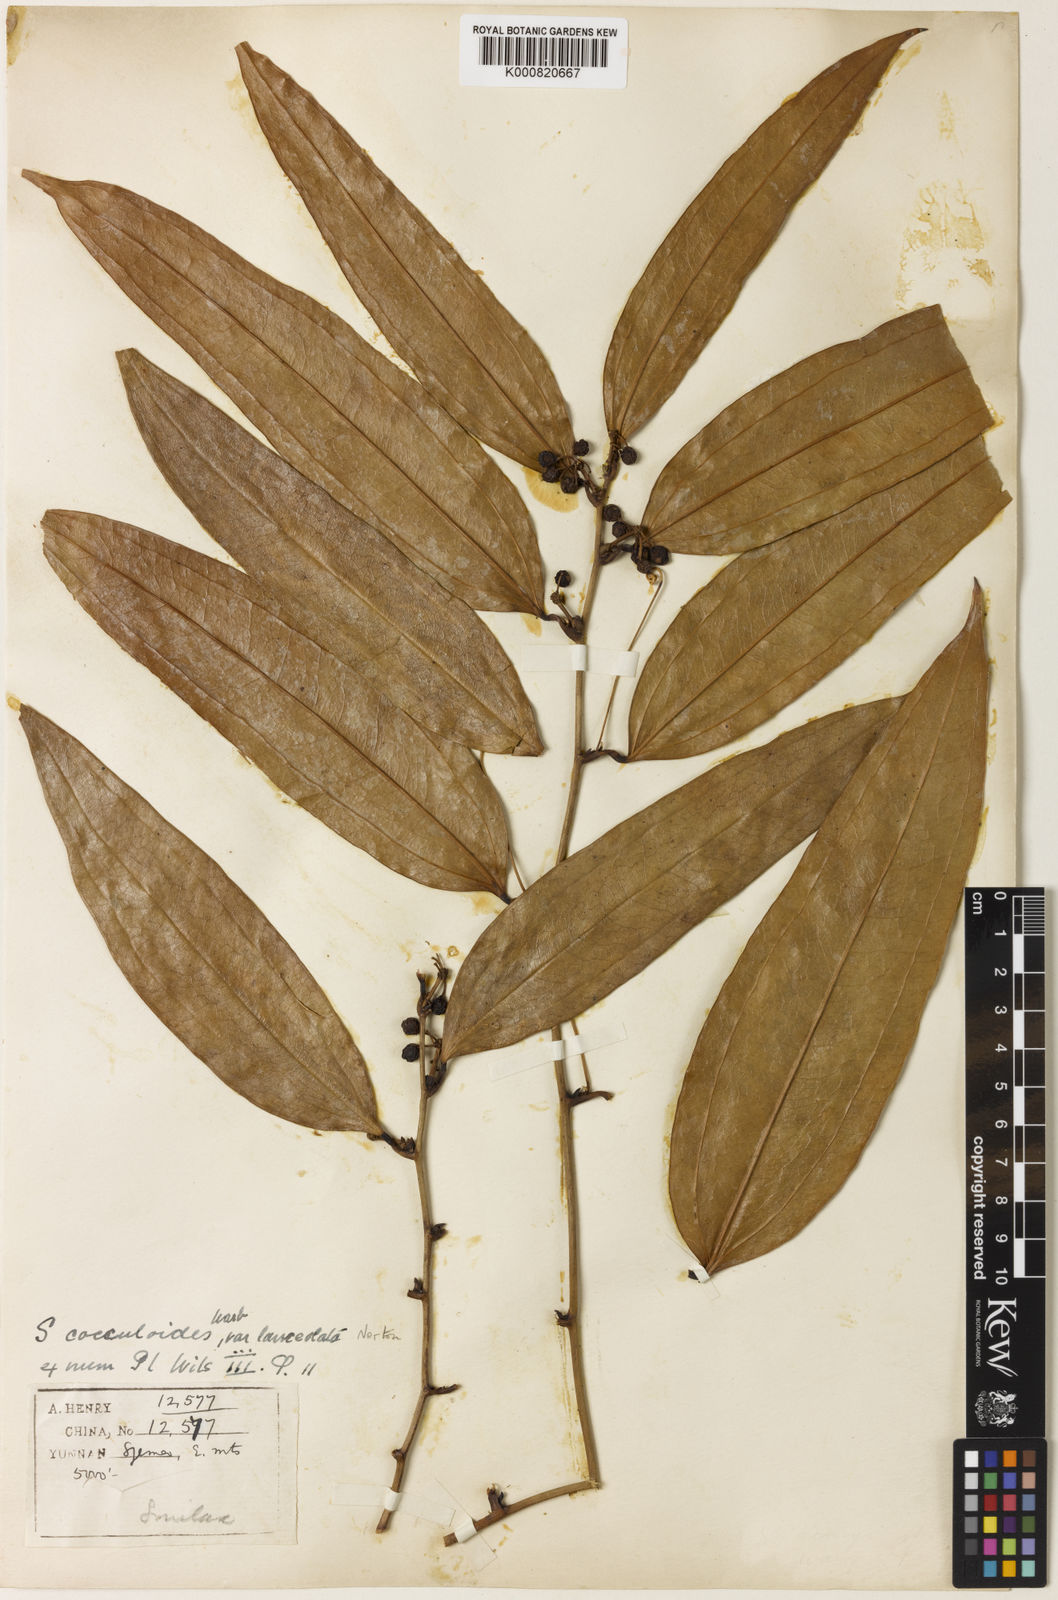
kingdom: Plantae
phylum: Tracheophyta
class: Liliopsida
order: Liliales
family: Smilacaceae
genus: Smilax
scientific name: Smilax cocculoides
